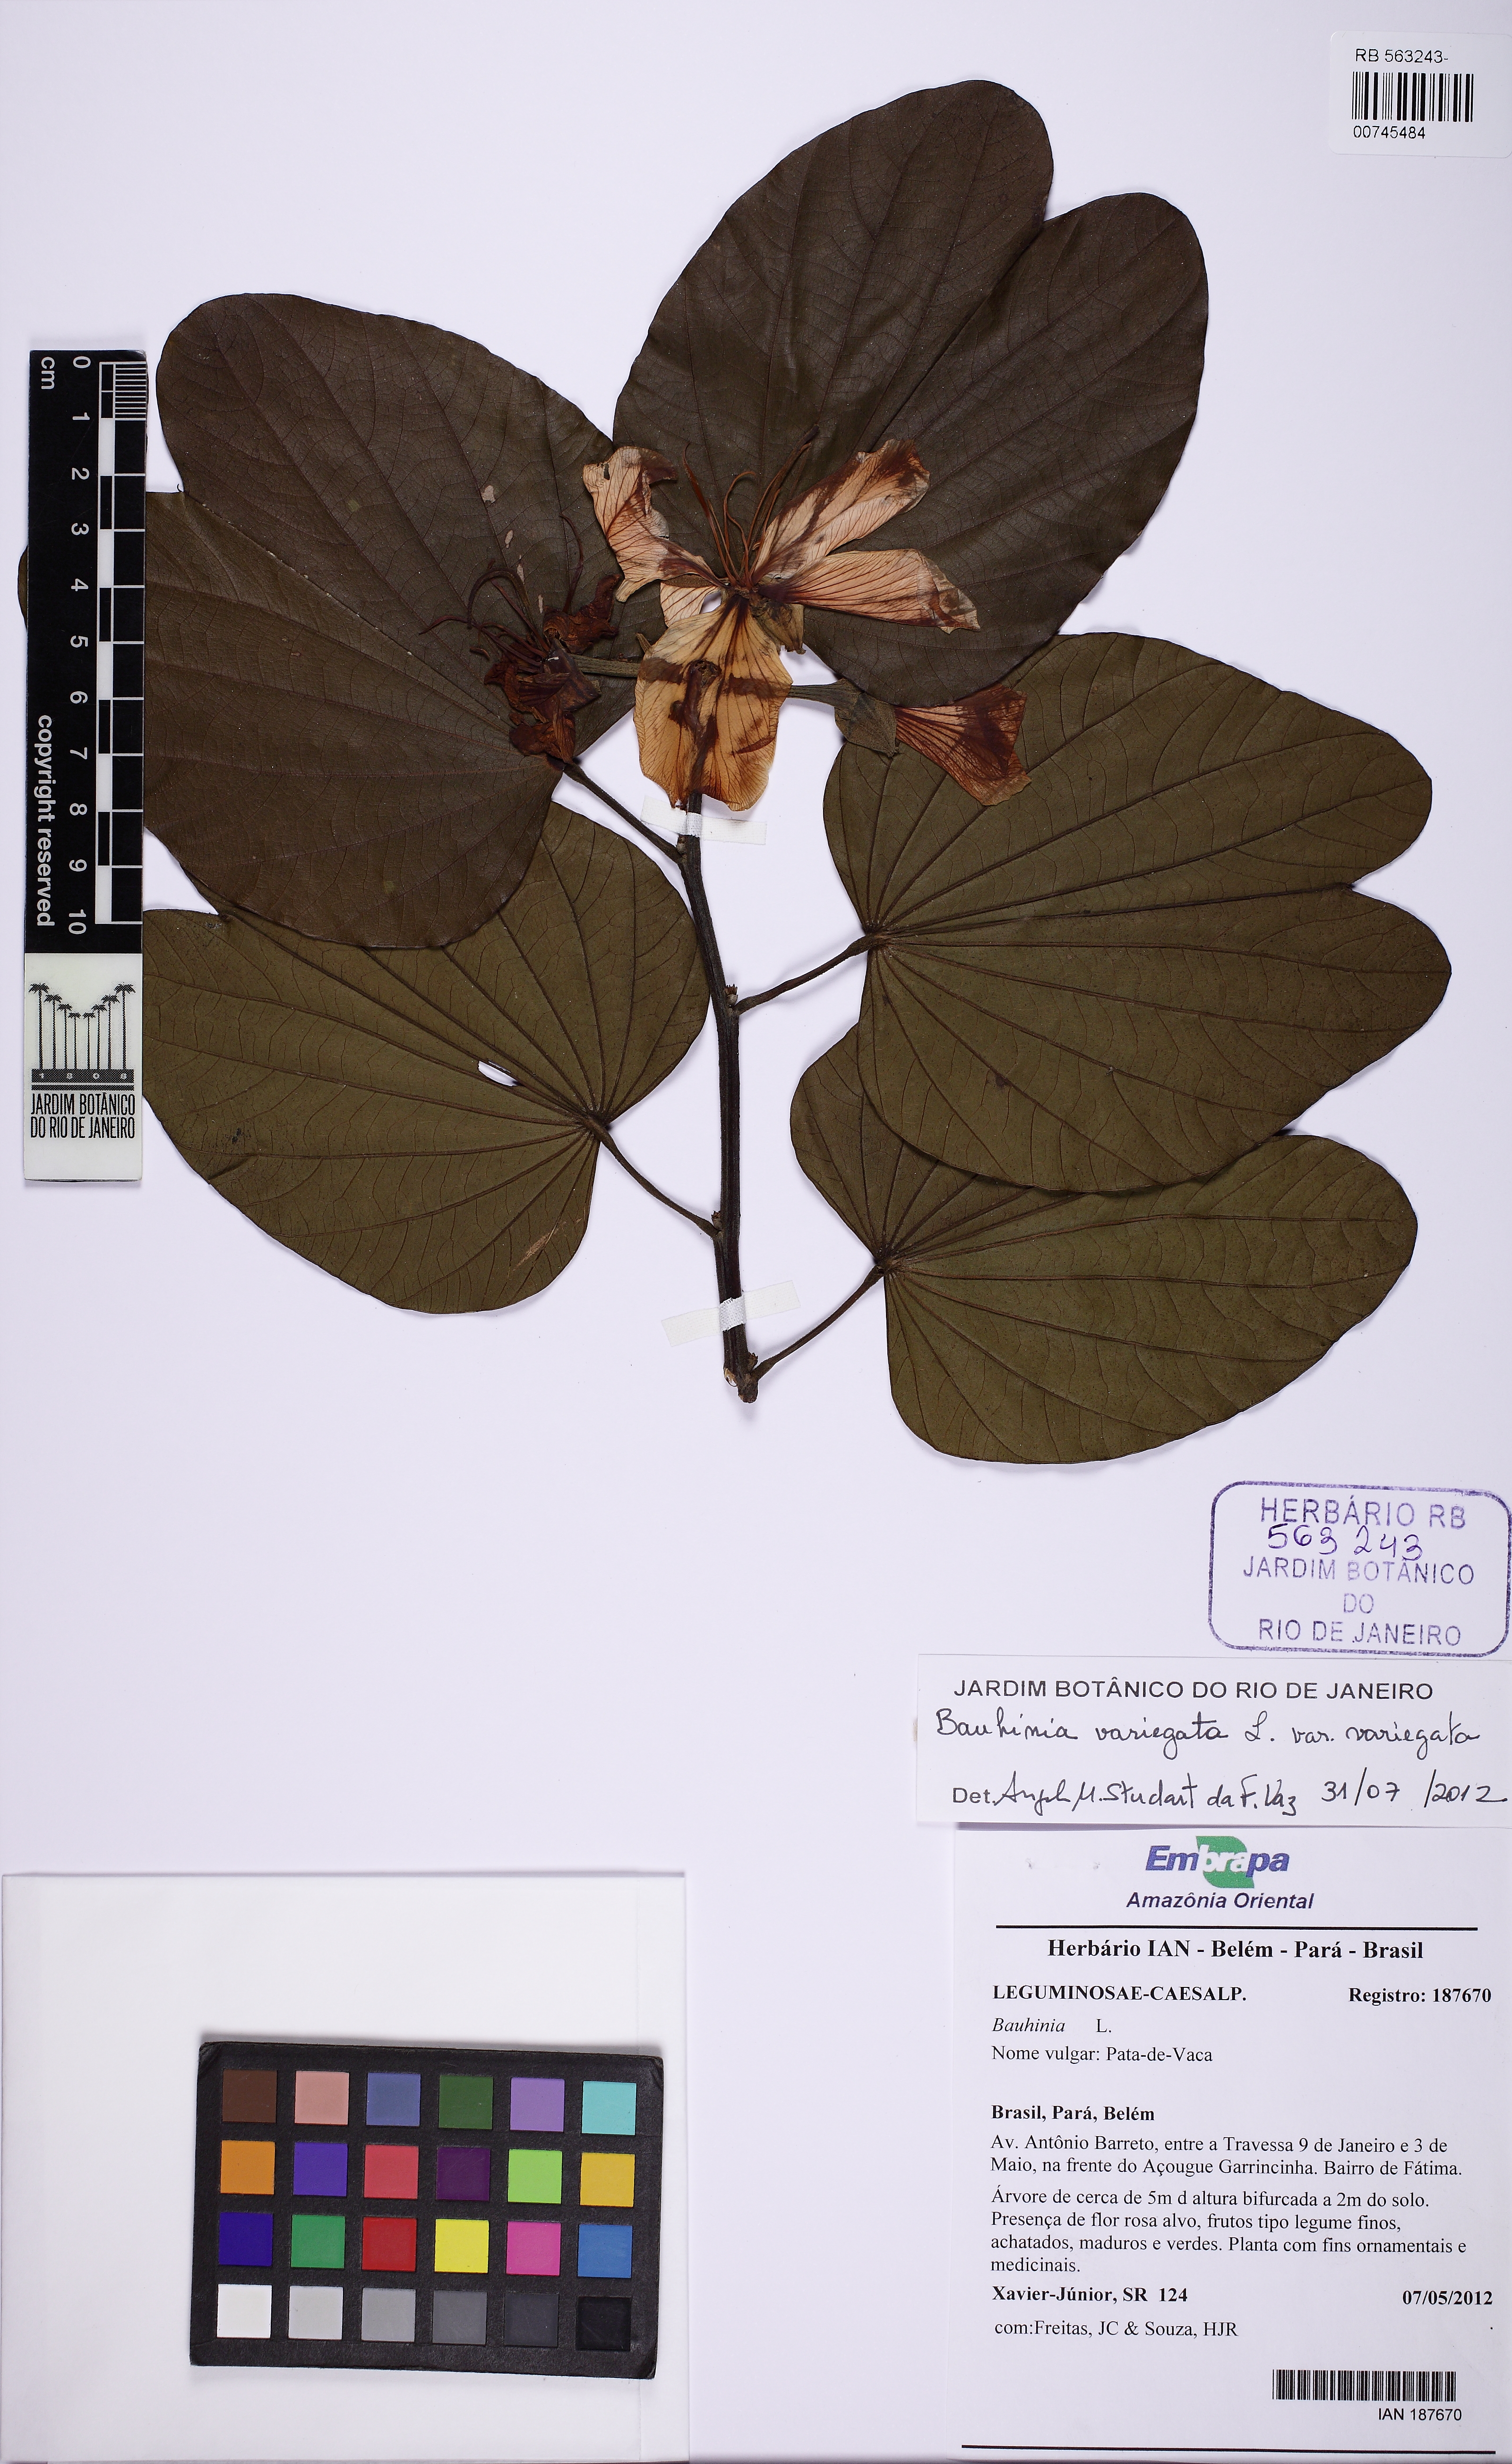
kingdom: Plantae
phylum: Tracheophyta
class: Magnoliopsida
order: Fabales
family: Fabaceae
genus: Bauhinia
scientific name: Bauhinia variegata
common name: Mountain ebony
